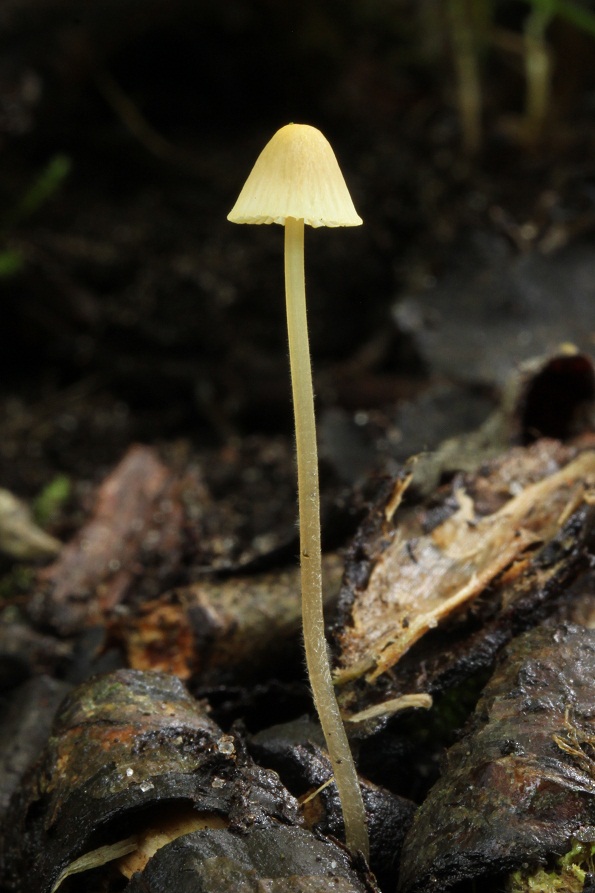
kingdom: Fungi
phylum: Basidiomycota
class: Agaricomycetes
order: Agaricales
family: Mycenaceae
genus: Mycena
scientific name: Mycena citrinomarginata
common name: gulægget huesvamp
